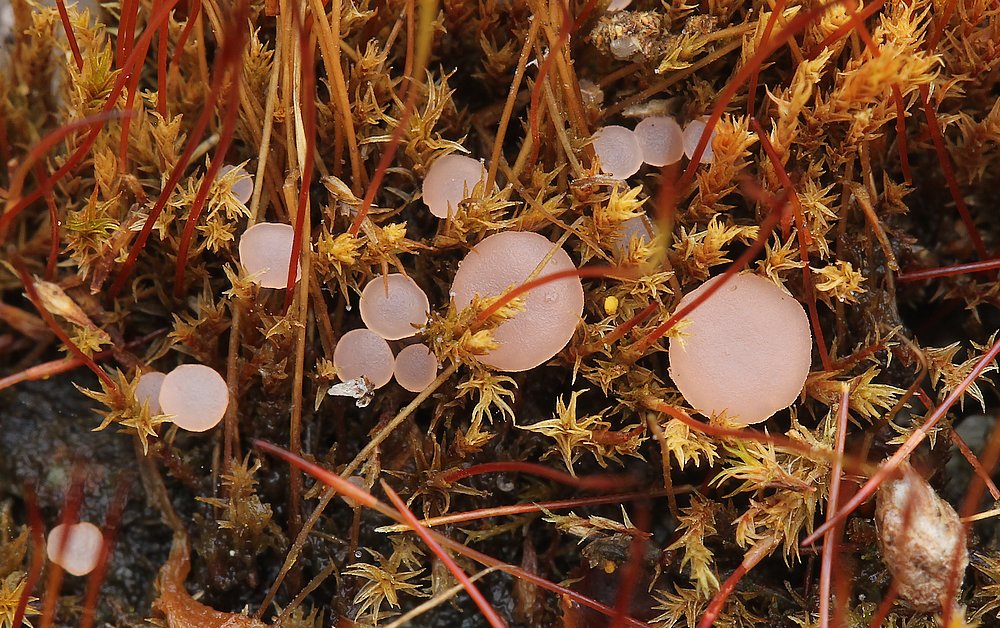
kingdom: Fungi
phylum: Ascomycota
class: Leotiomycetes
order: Helotiales
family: Hyaloscyphaceae
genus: Roseodiscus
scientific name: Roseodiscus formosus
